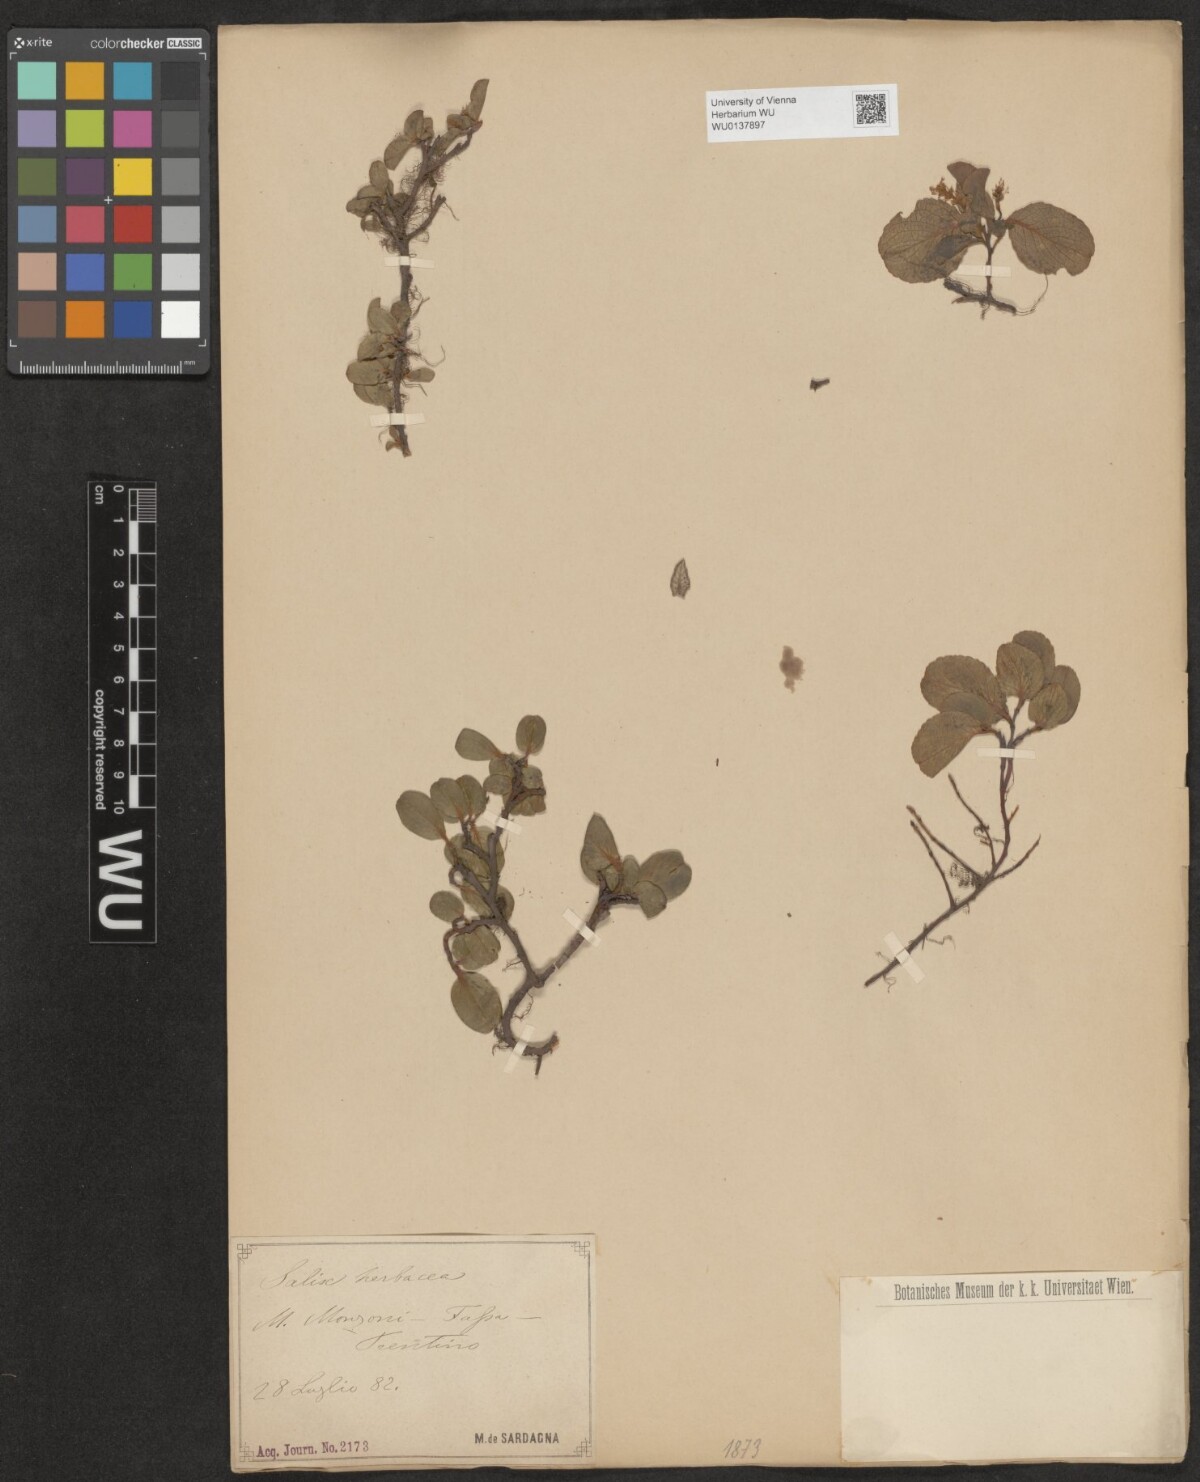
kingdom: Plantae
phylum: Tracheophyta
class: Magnoliopsida
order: Malpighiales
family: Salicaceae
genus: Salix
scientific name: Salix herbacea
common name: Dwarf willow
